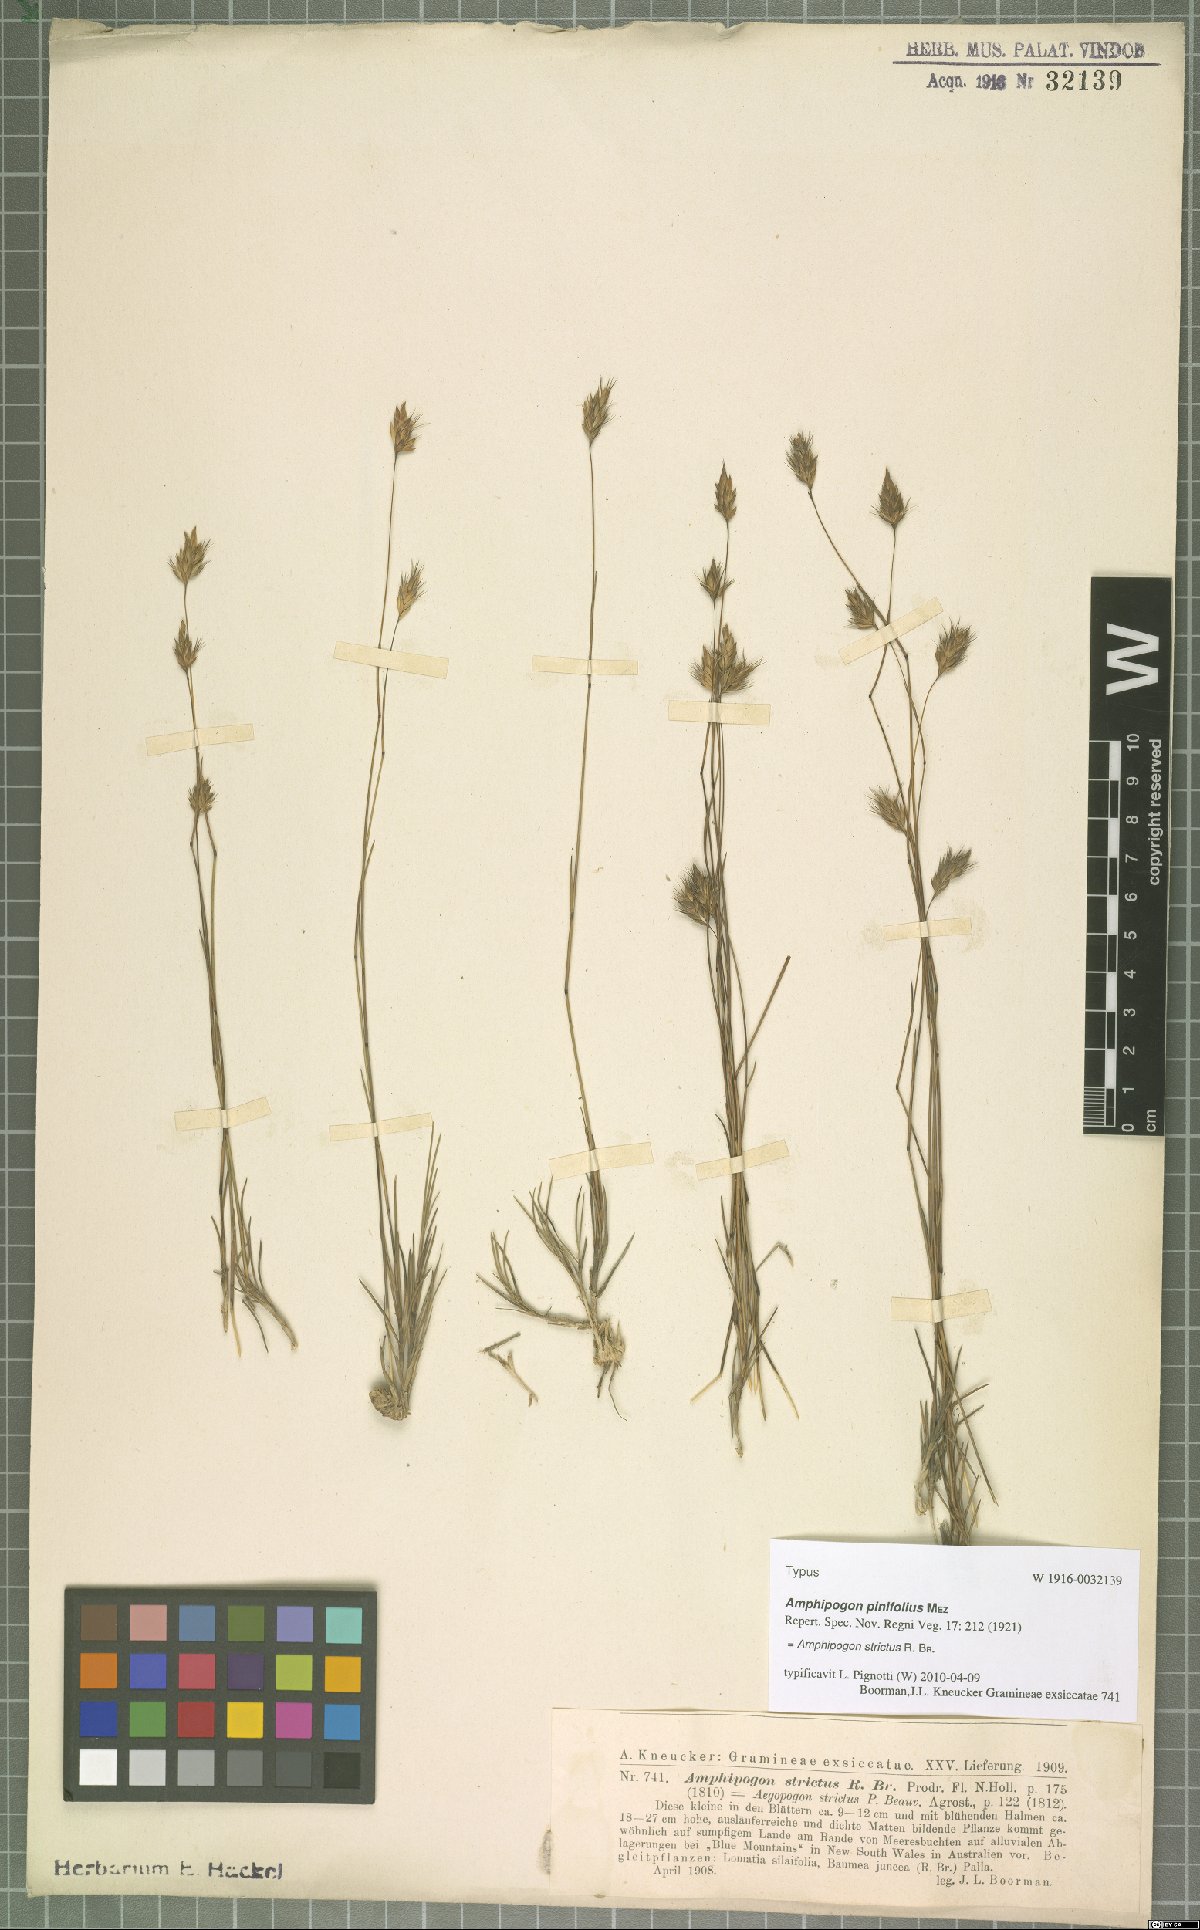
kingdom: Plantae
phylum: Tracheophyta
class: Liliopsida
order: Poales
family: Poaceae
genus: Amphipogon
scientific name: Amphipogon strictus
